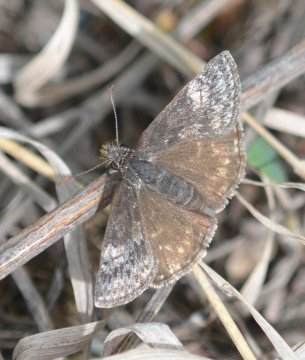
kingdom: Animalia
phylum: Arthropoda
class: Insecta
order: Lepidoptera
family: Hesperiidae
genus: Gesta
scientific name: Gesta
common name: Persius Duskywing
